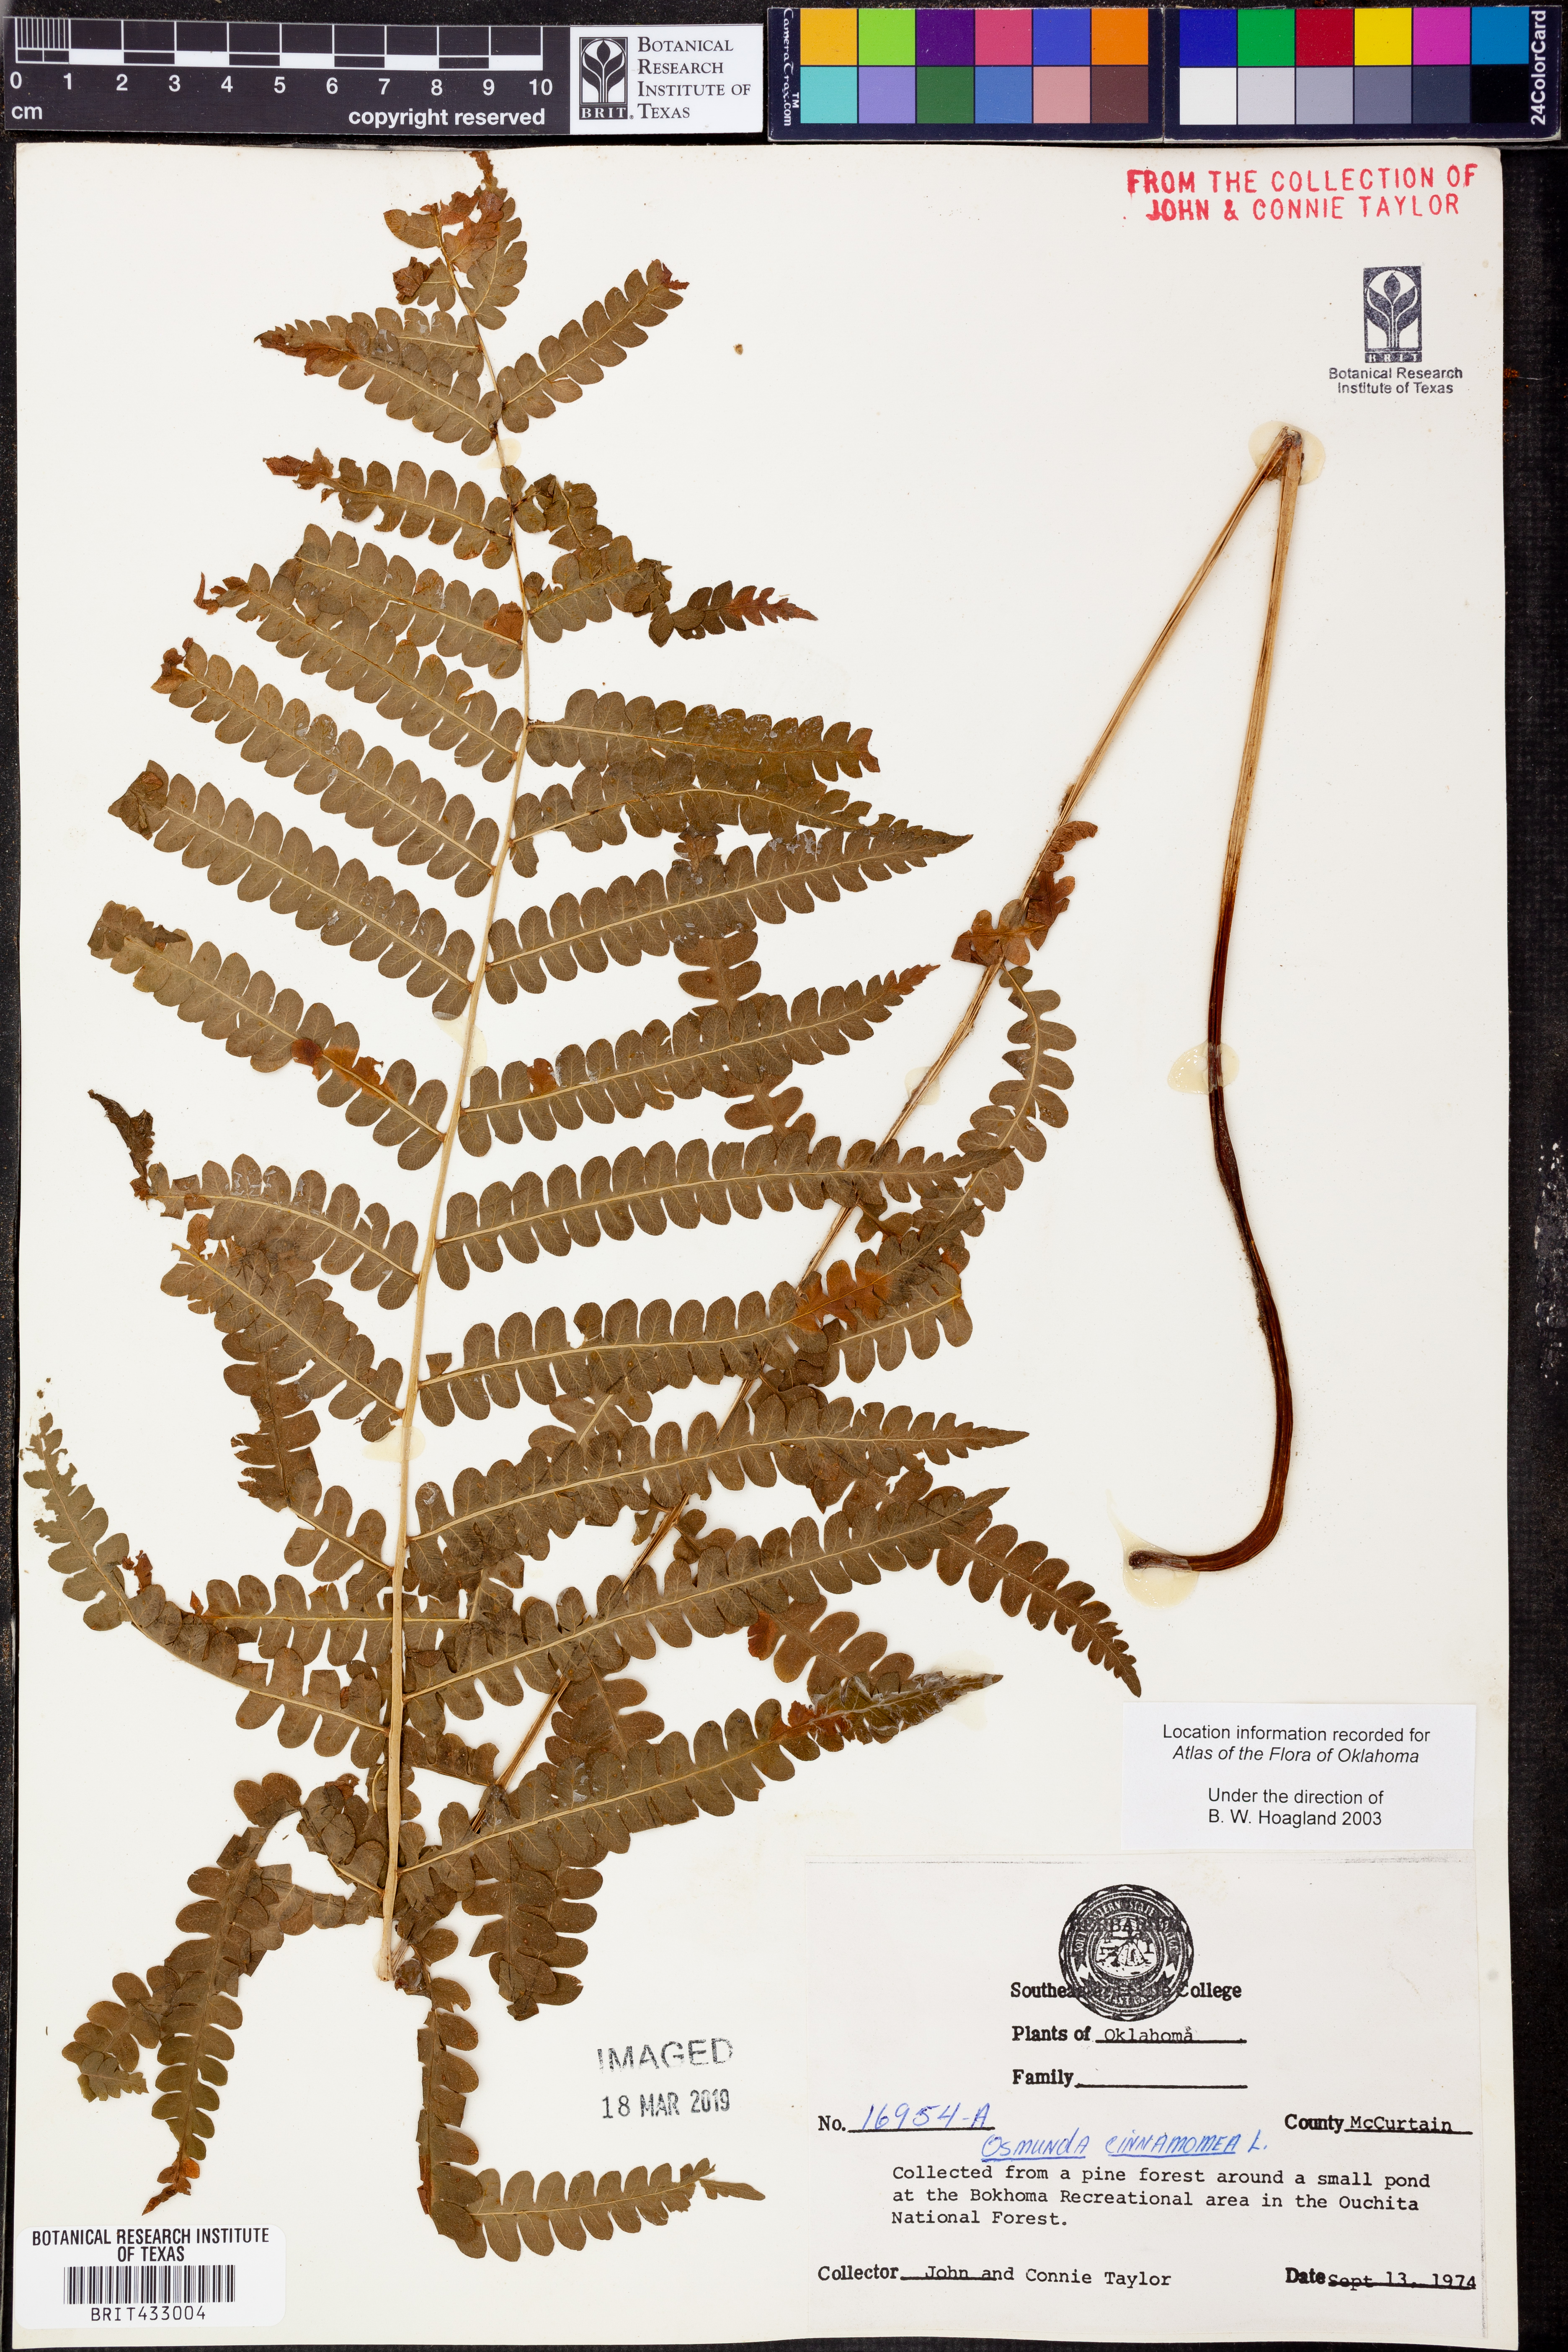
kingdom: Plantae
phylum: Tracheophyta
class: Polypodiopsida
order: Osmundales
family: Osmundaceae
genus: Osmundastrum
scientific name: Osmundastrum cinnamomeum
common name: Cinnamon fern
